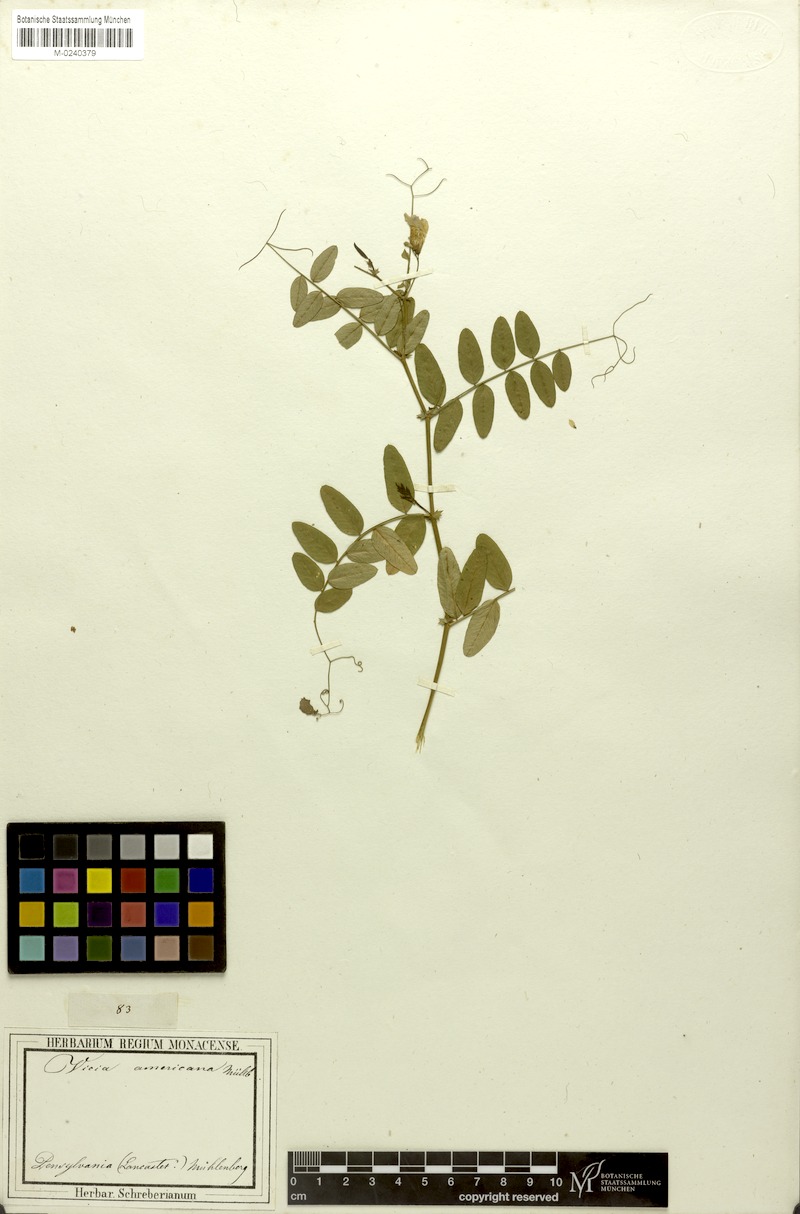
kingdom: Plantae
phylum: Tracheophyta
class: Magnoliopsida
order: Fabales
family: Fabaceae
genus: Vicia
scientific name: Vicia americana
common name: American vetch
